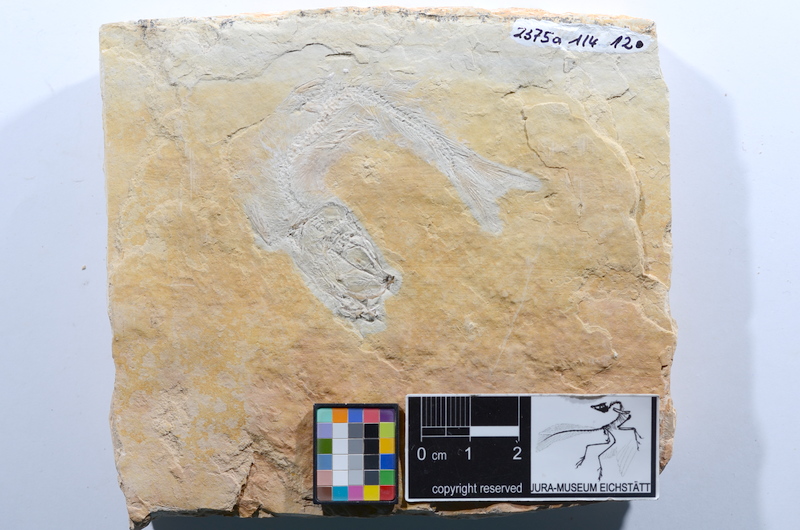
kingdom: Animalia
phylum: Chordata
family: Ascalaboidae
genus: Tharsis
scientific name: Tharsis dubius
